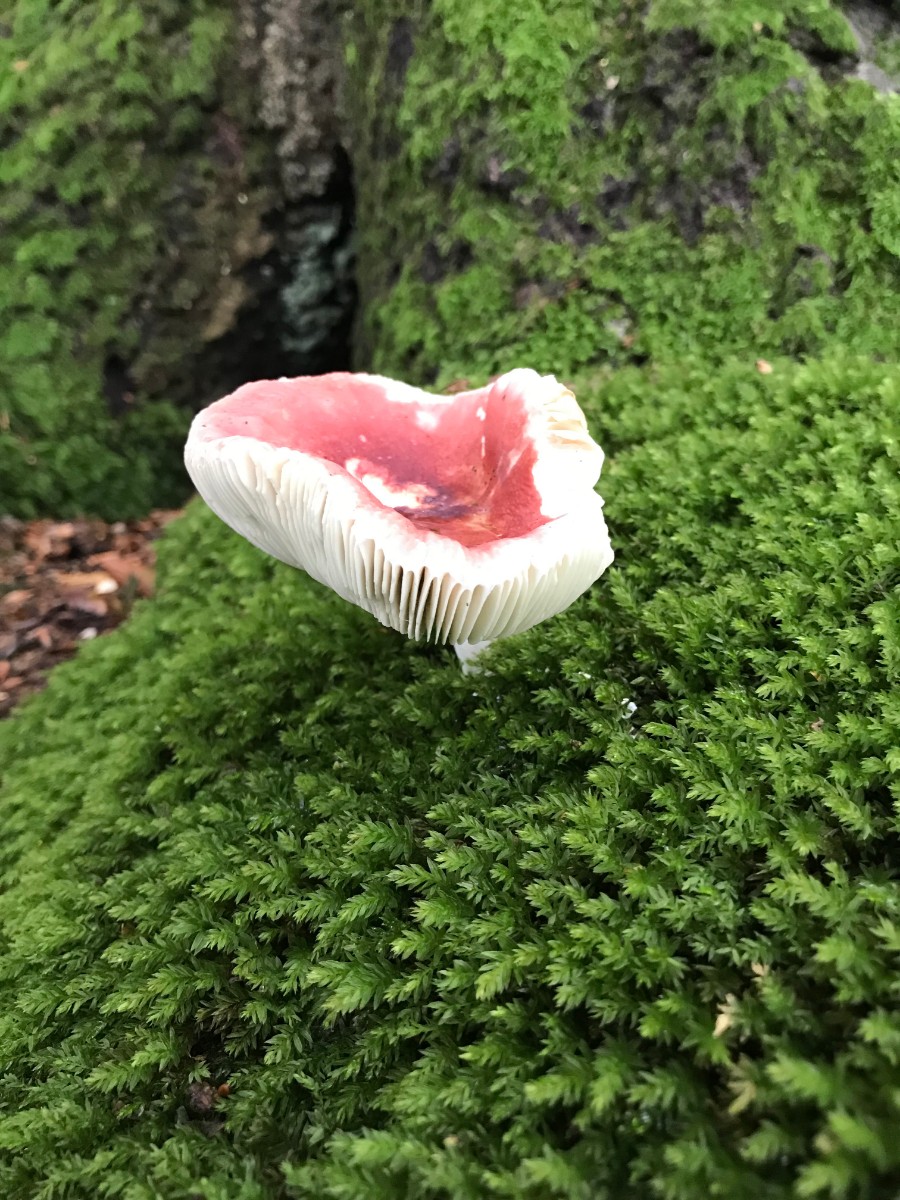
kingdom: Fungi
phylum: Basidiomycota
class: Agaricomycetes
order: Russulales
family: Russulaceae
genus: Russula
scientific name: Russula aurora
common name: rosa skørhat
